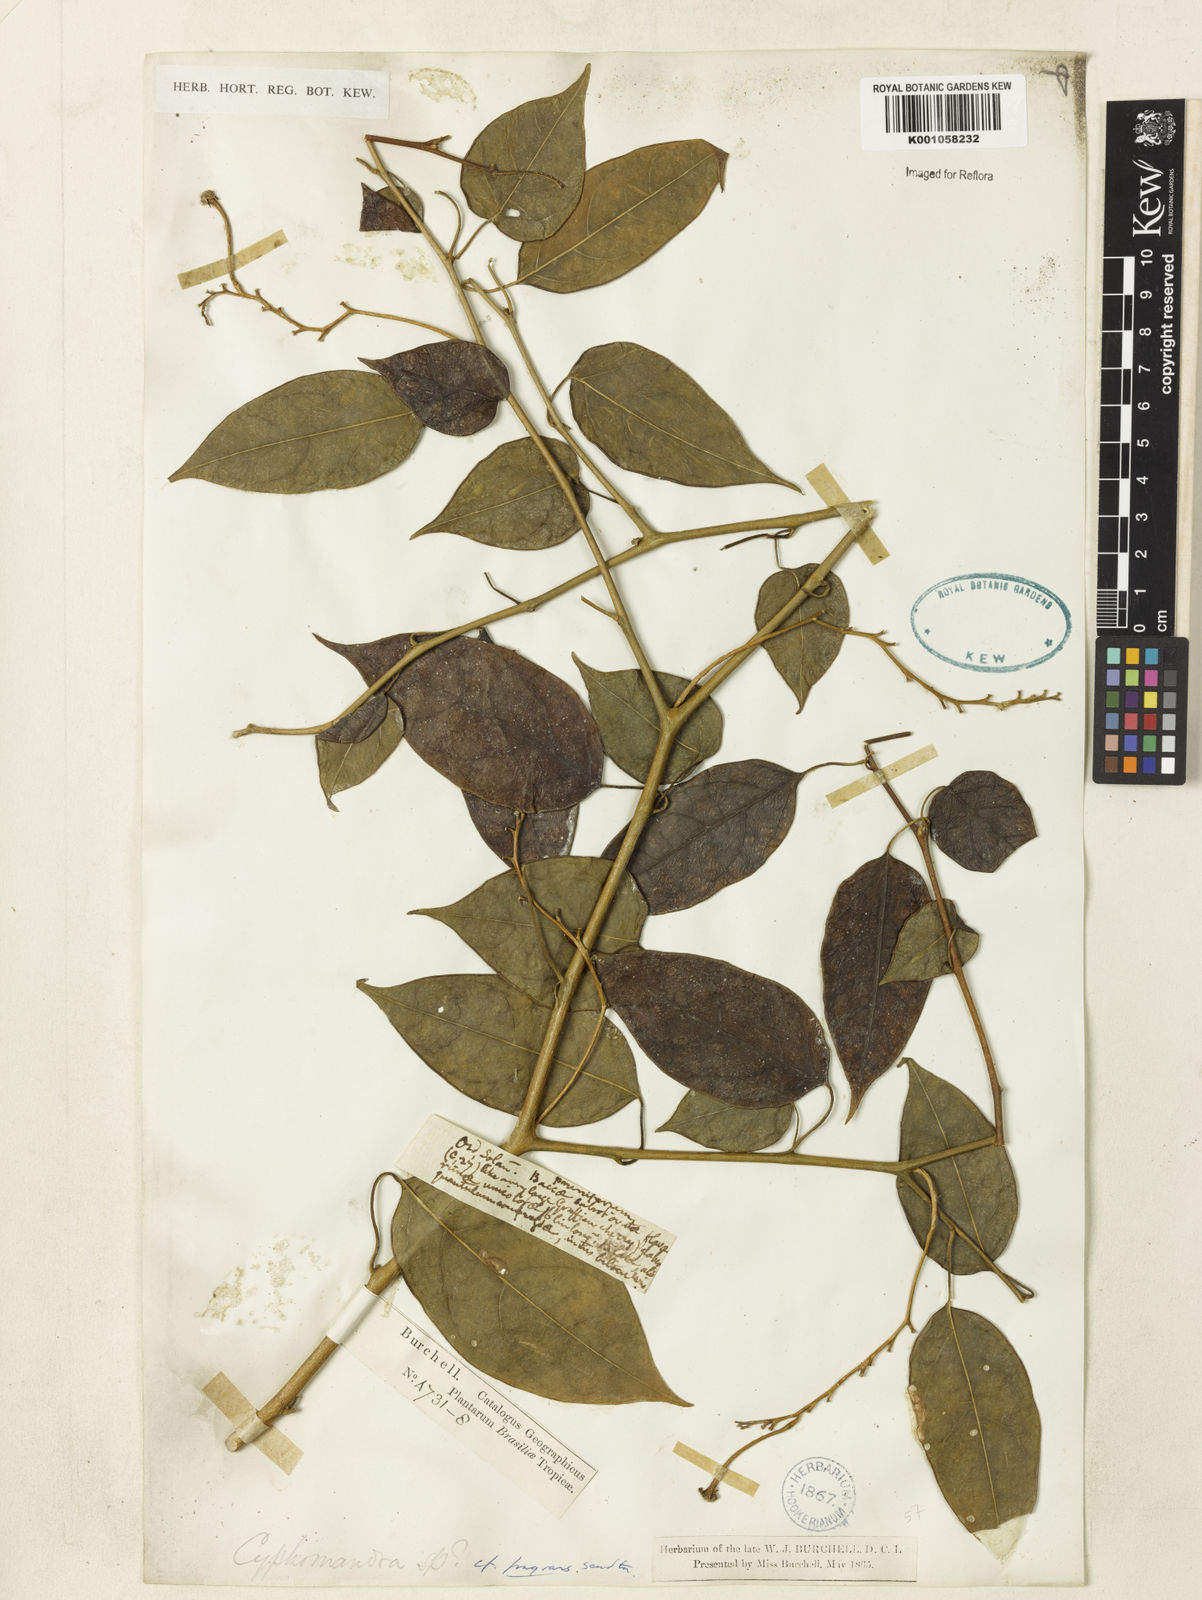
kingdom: Plantae
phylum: Tracheophyta
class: Magnoliopsida
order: Solanales
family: Solanaceae
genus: Solanum
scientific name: Solanum diploconos
